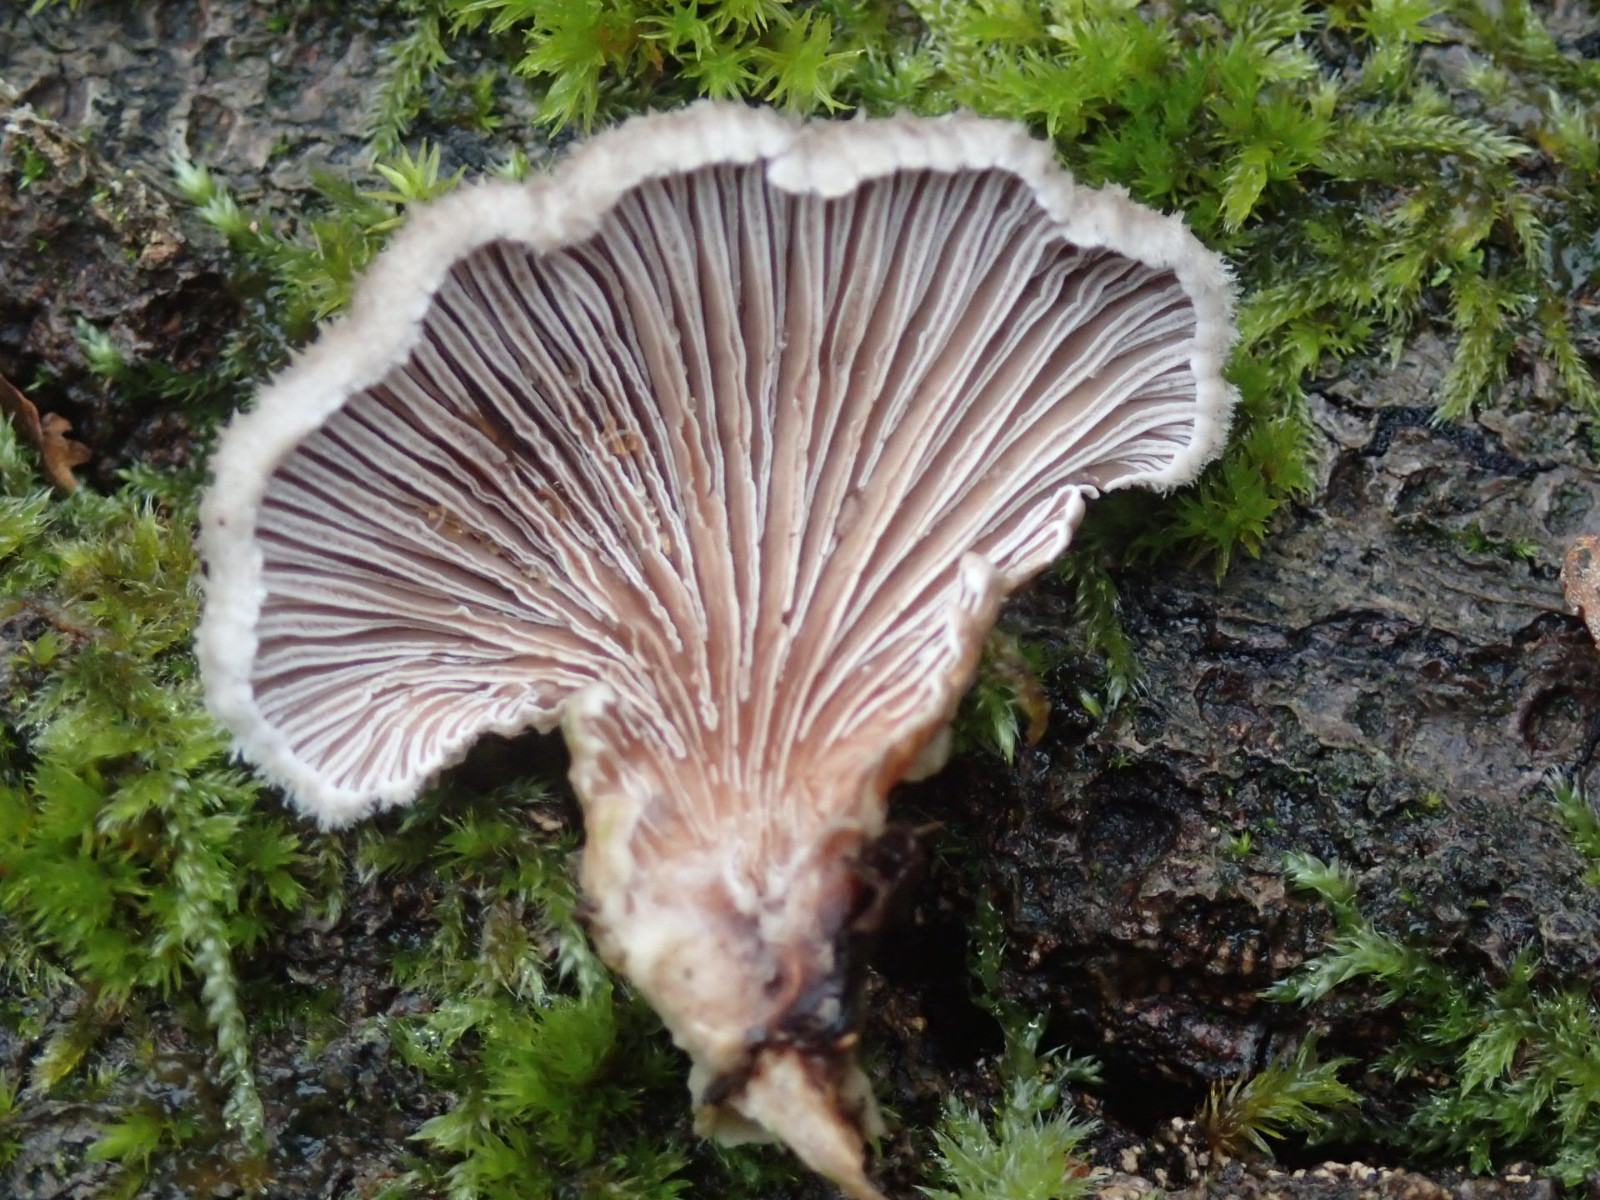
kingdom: Fungi
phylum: Basidiomycota
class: Agaricomycetes
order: Agaricales
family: Schizophyllaceae
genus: Schizophyllum
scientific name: Schizophyllum commune
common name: kløvblad
